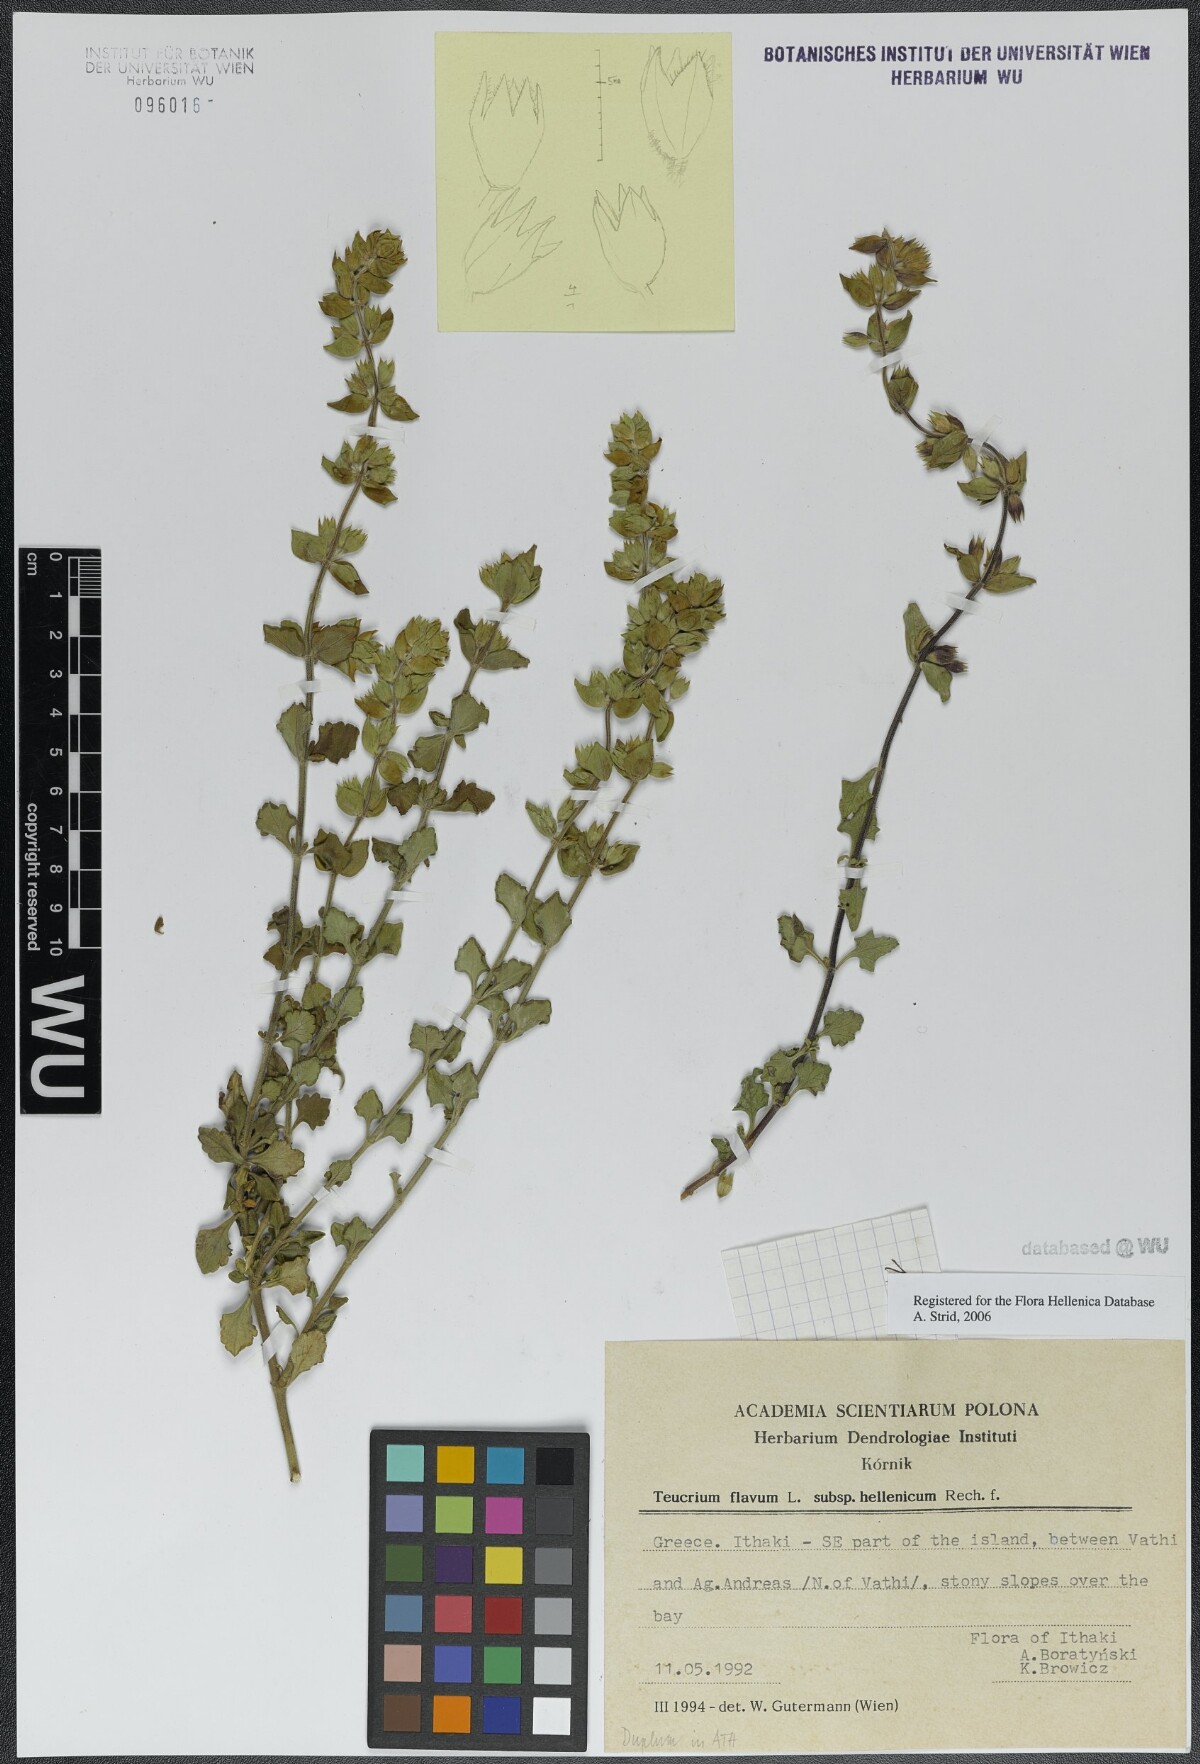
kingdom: Plantae
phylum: Tracheophyta
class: Magnoliopsida
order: Lamiales
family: Lamiaceae
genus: Teucrium
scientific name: Teucrium flavum
